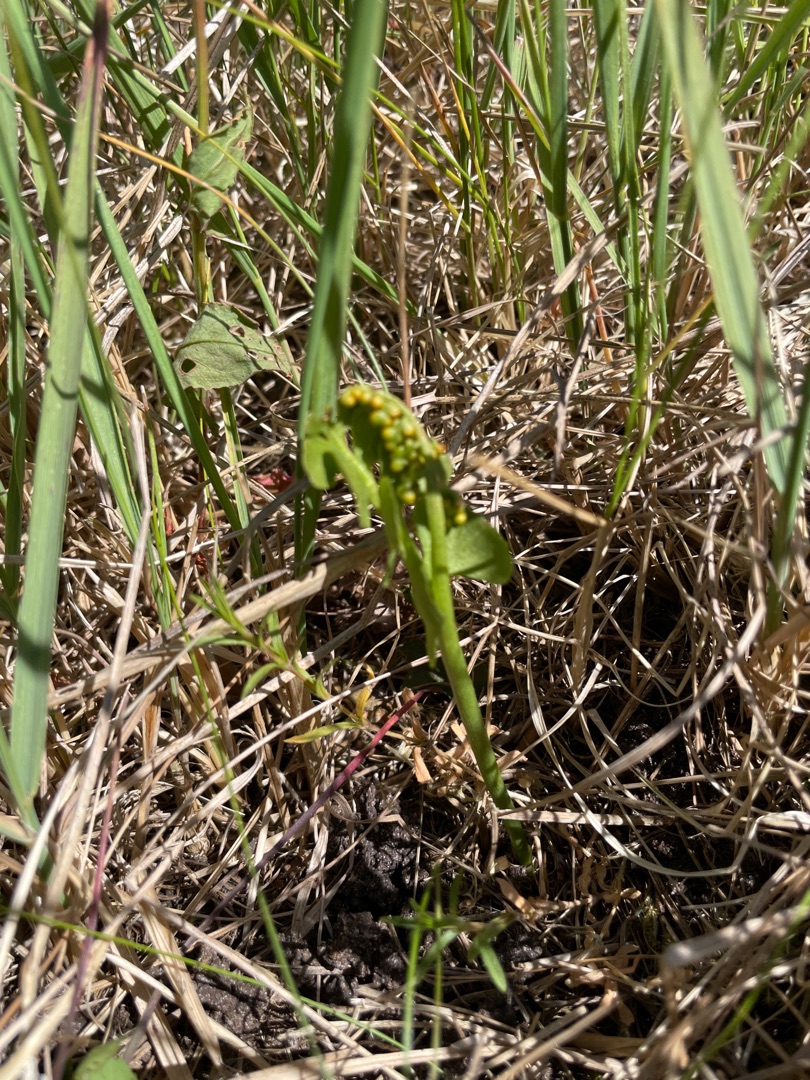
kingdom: Plantae
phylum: Tracheophyta
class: Polypodiopsida
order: Ophioglossales
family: Ophioglossaceae
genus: Botrychium
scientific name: Botrychium lunaria
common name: Almindelig månerude
